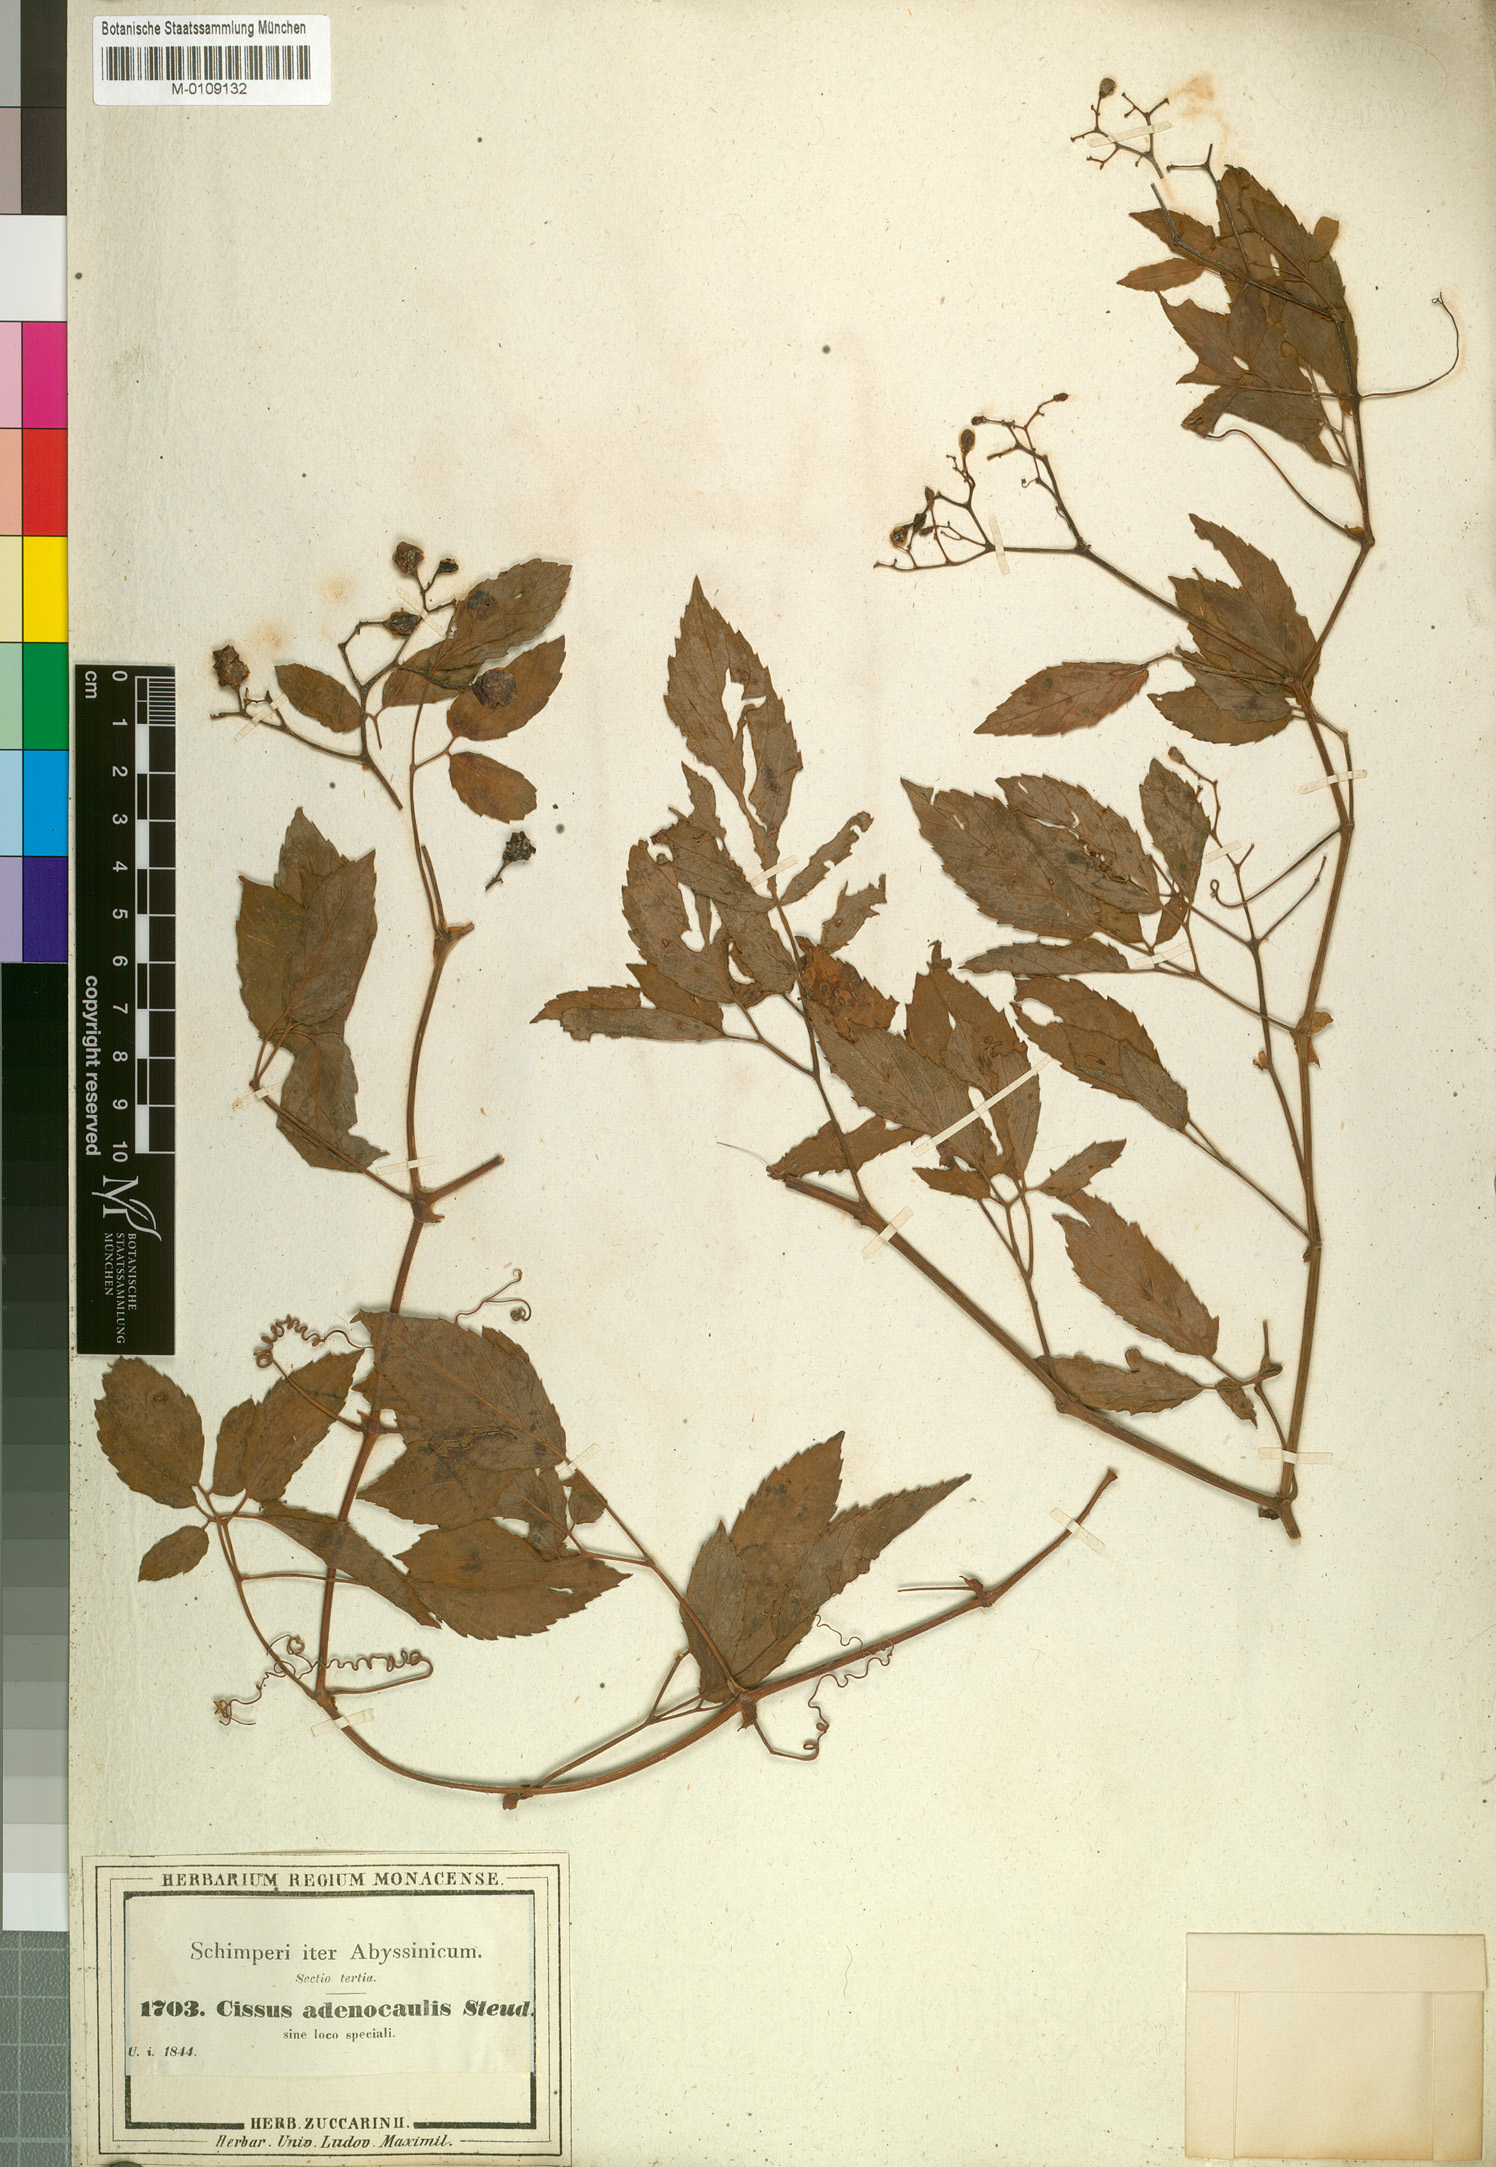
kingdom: Plantae
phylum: Tracheophyta
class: Magnoliopsida
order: Vitales
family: Vitaceae
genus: Cyphostemma
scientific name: Cyphostemma adenocaule
